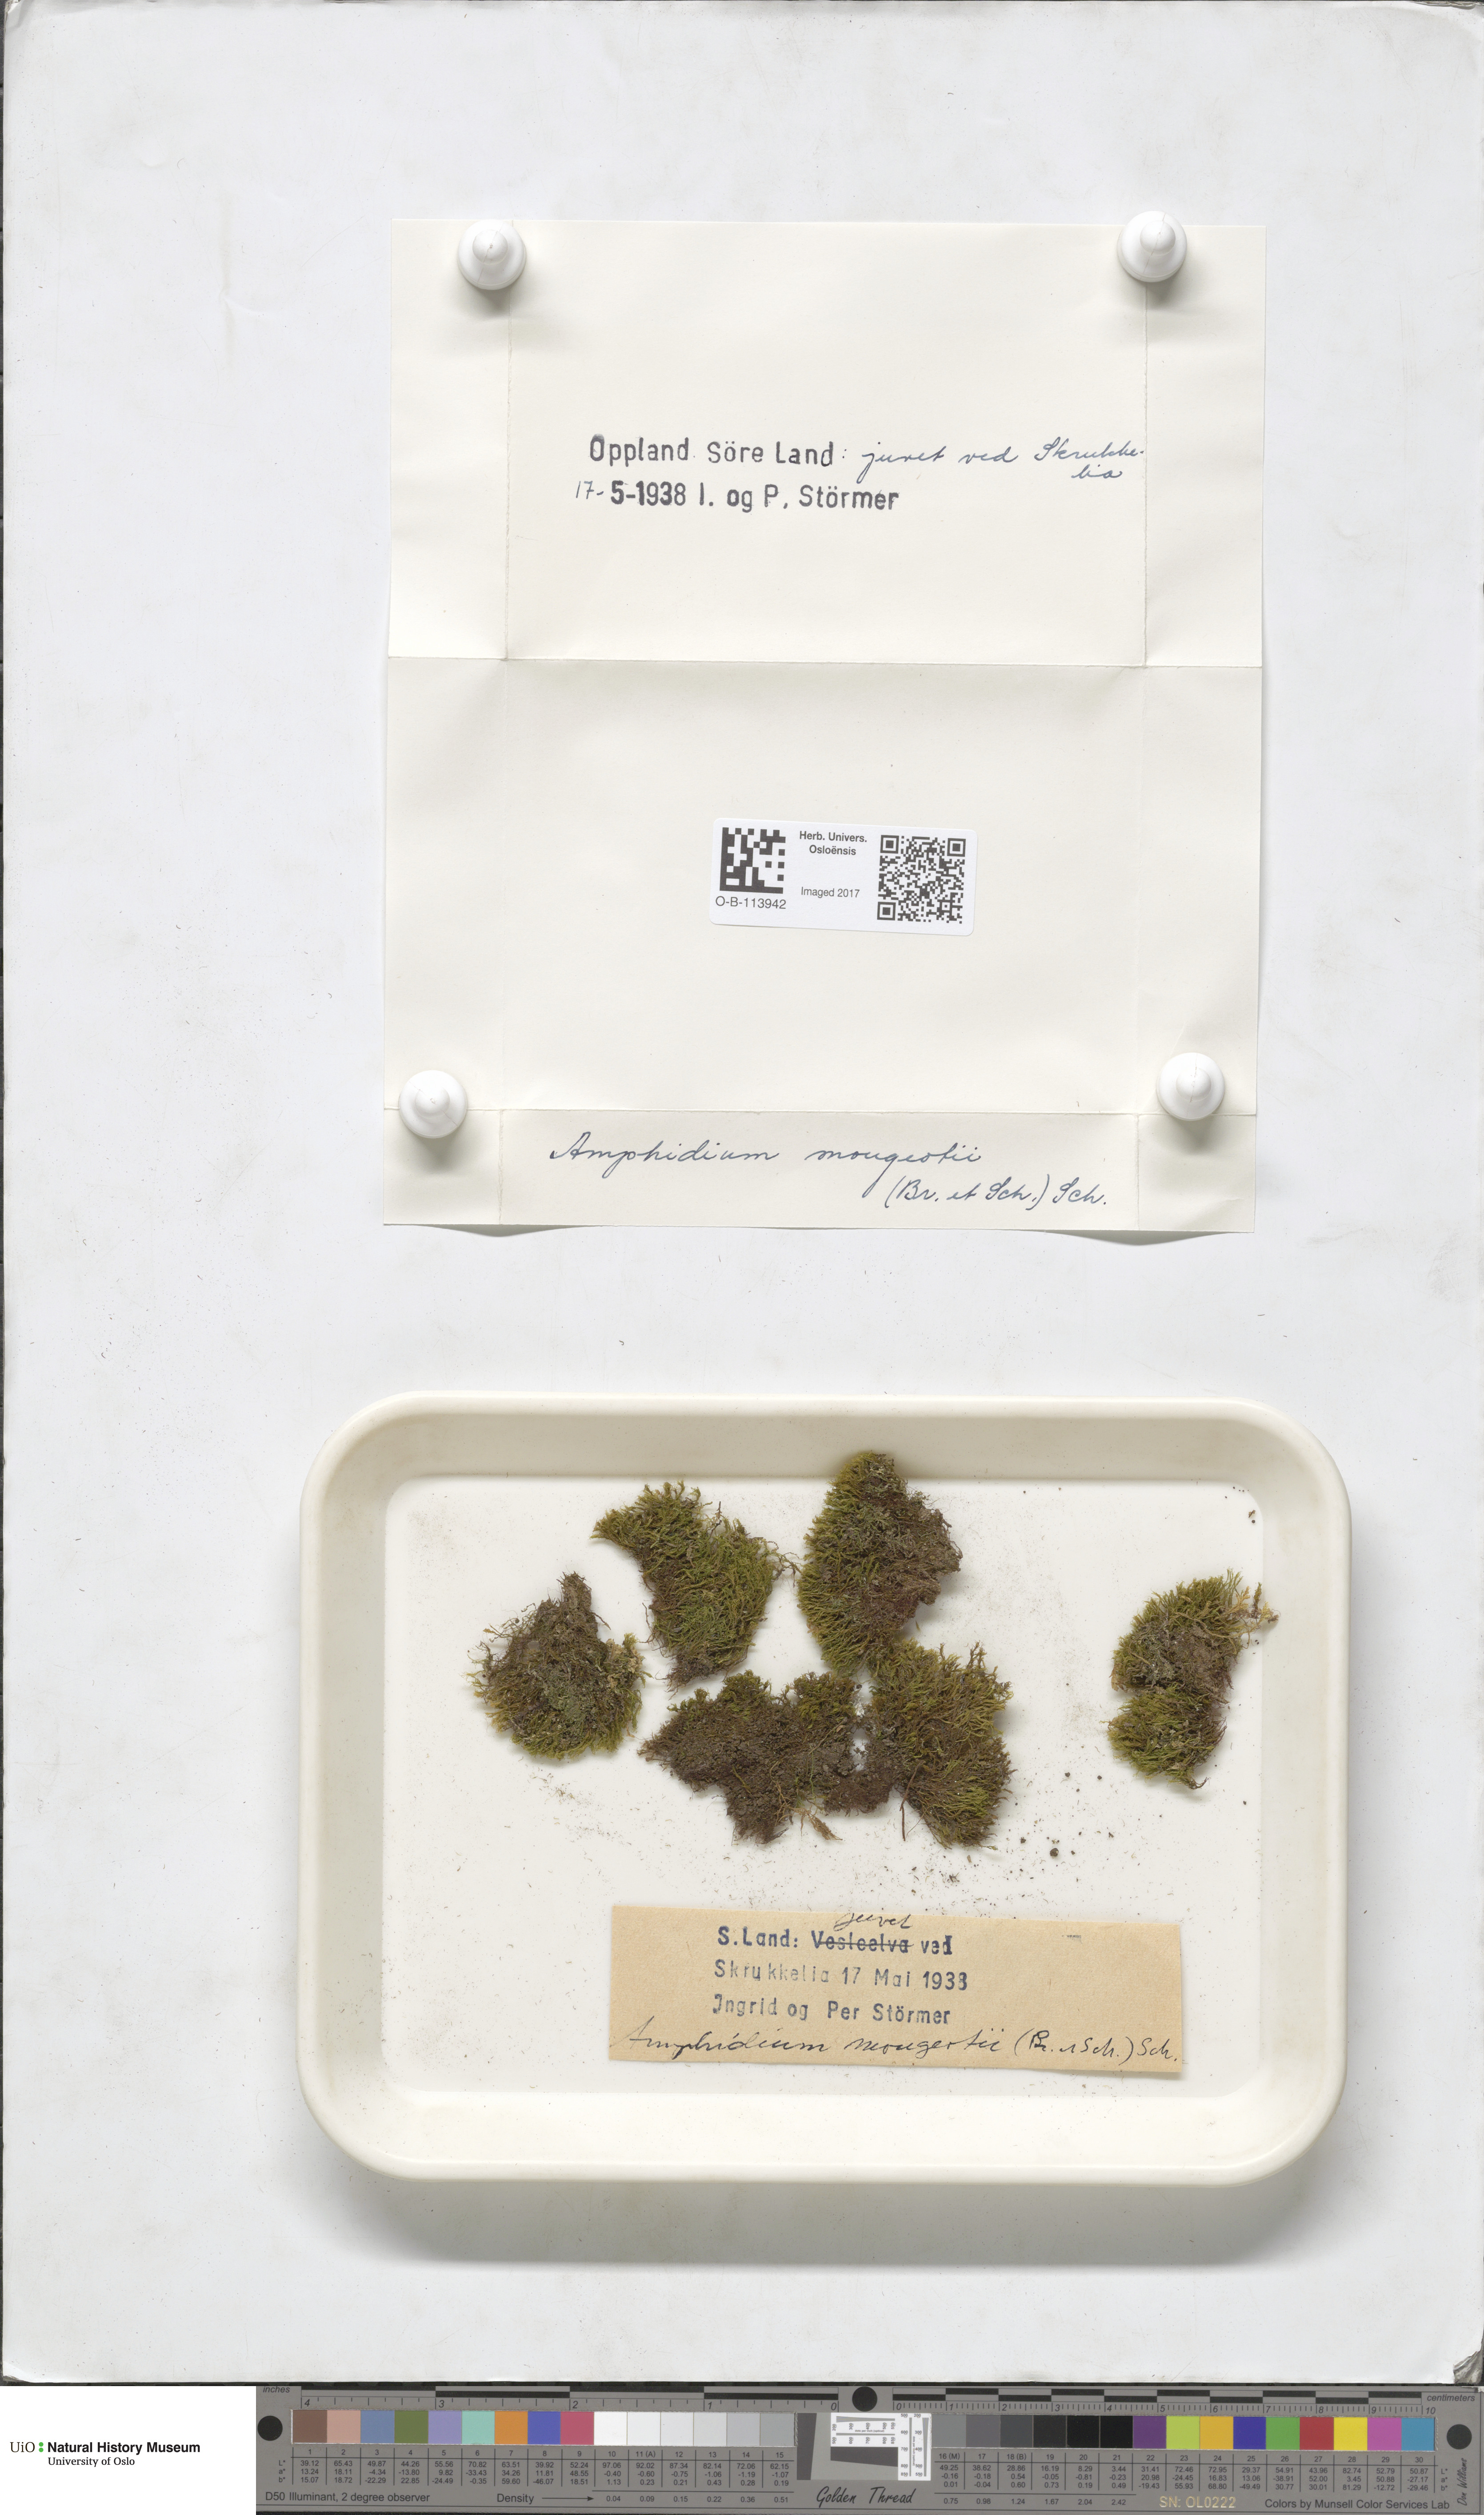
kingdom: Plantae
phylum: Bryophyta
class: Bryopsida
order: Dicranales
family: Amphidiaceae
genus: Amphidium
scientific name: Amphidium mougeotii
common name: Mougeot's yoke moss
